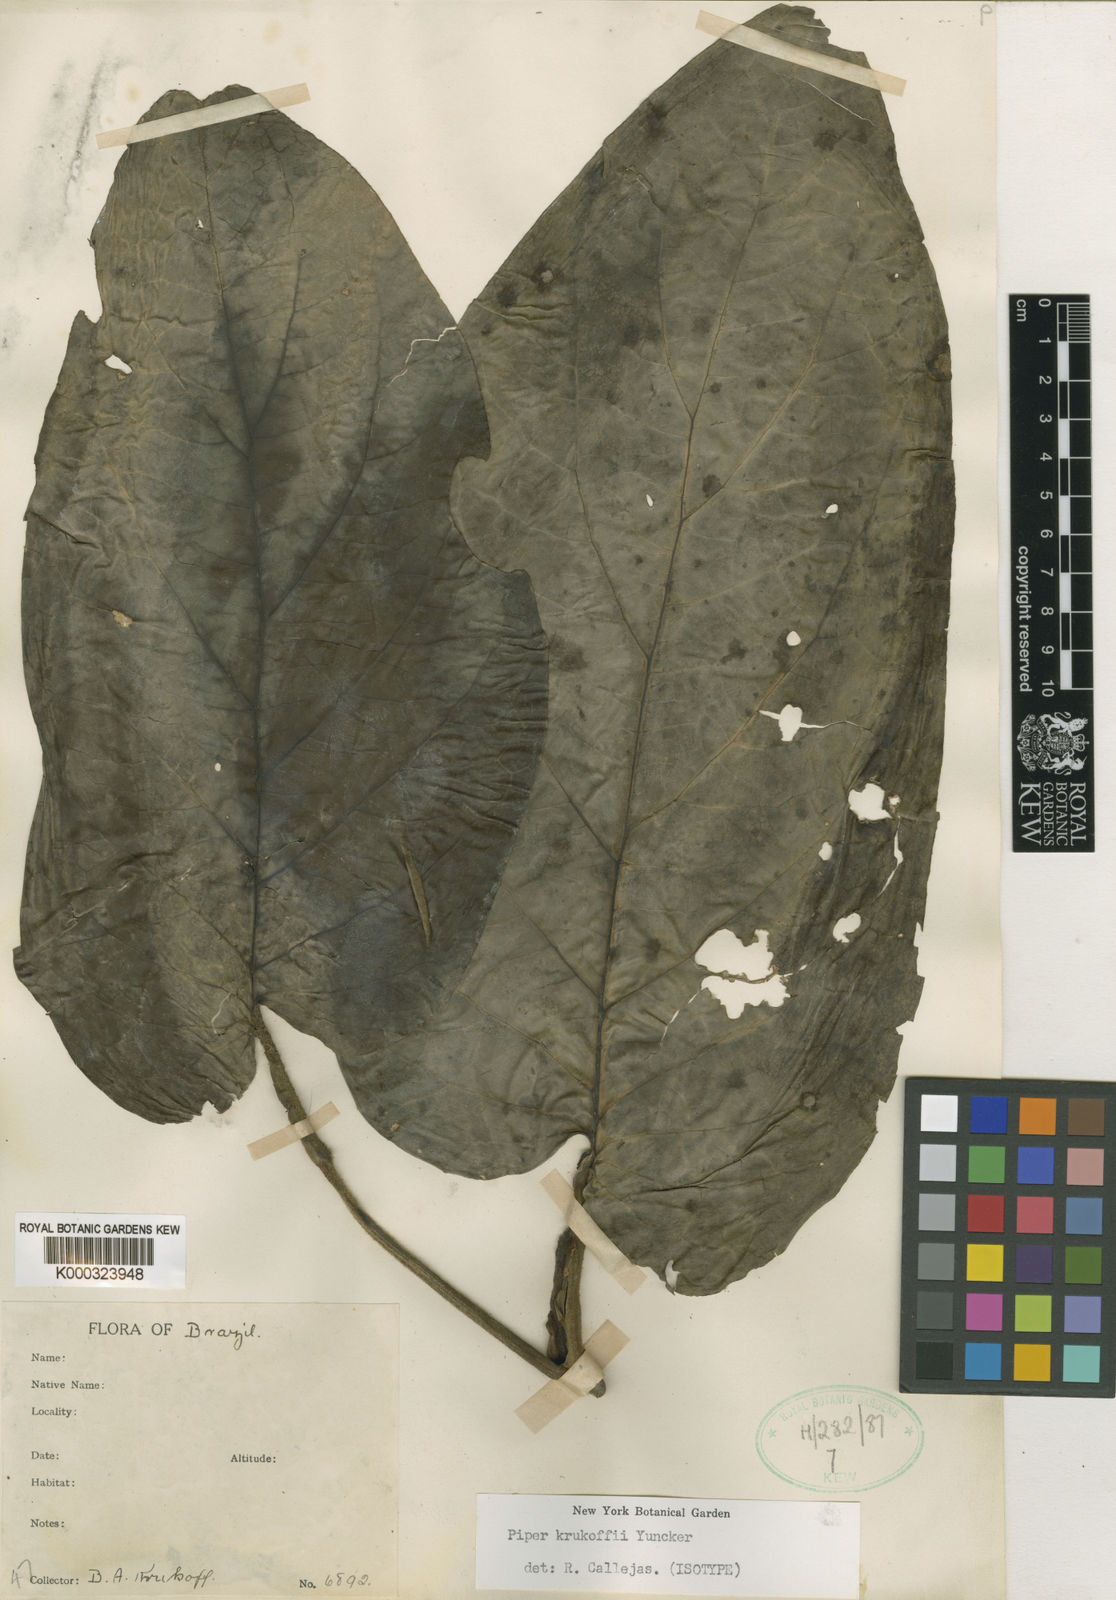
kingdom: Plantae
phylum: Tracheophyta
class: Magnoliopsida
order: Piperales
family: Piperaceae
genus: Piper
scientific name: Piper obliquum
